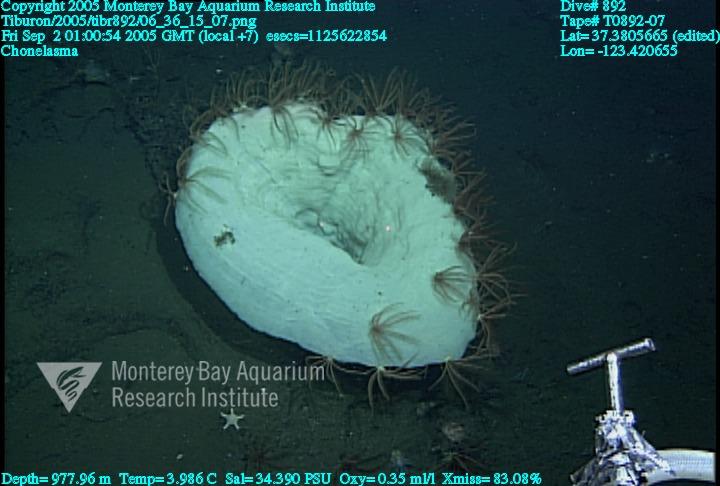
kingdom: Animalia
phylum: Porifera
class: Hexactinellida
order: Sceptrulophora
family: Euretidae
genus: Chonelasma
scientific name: Chonelasma
